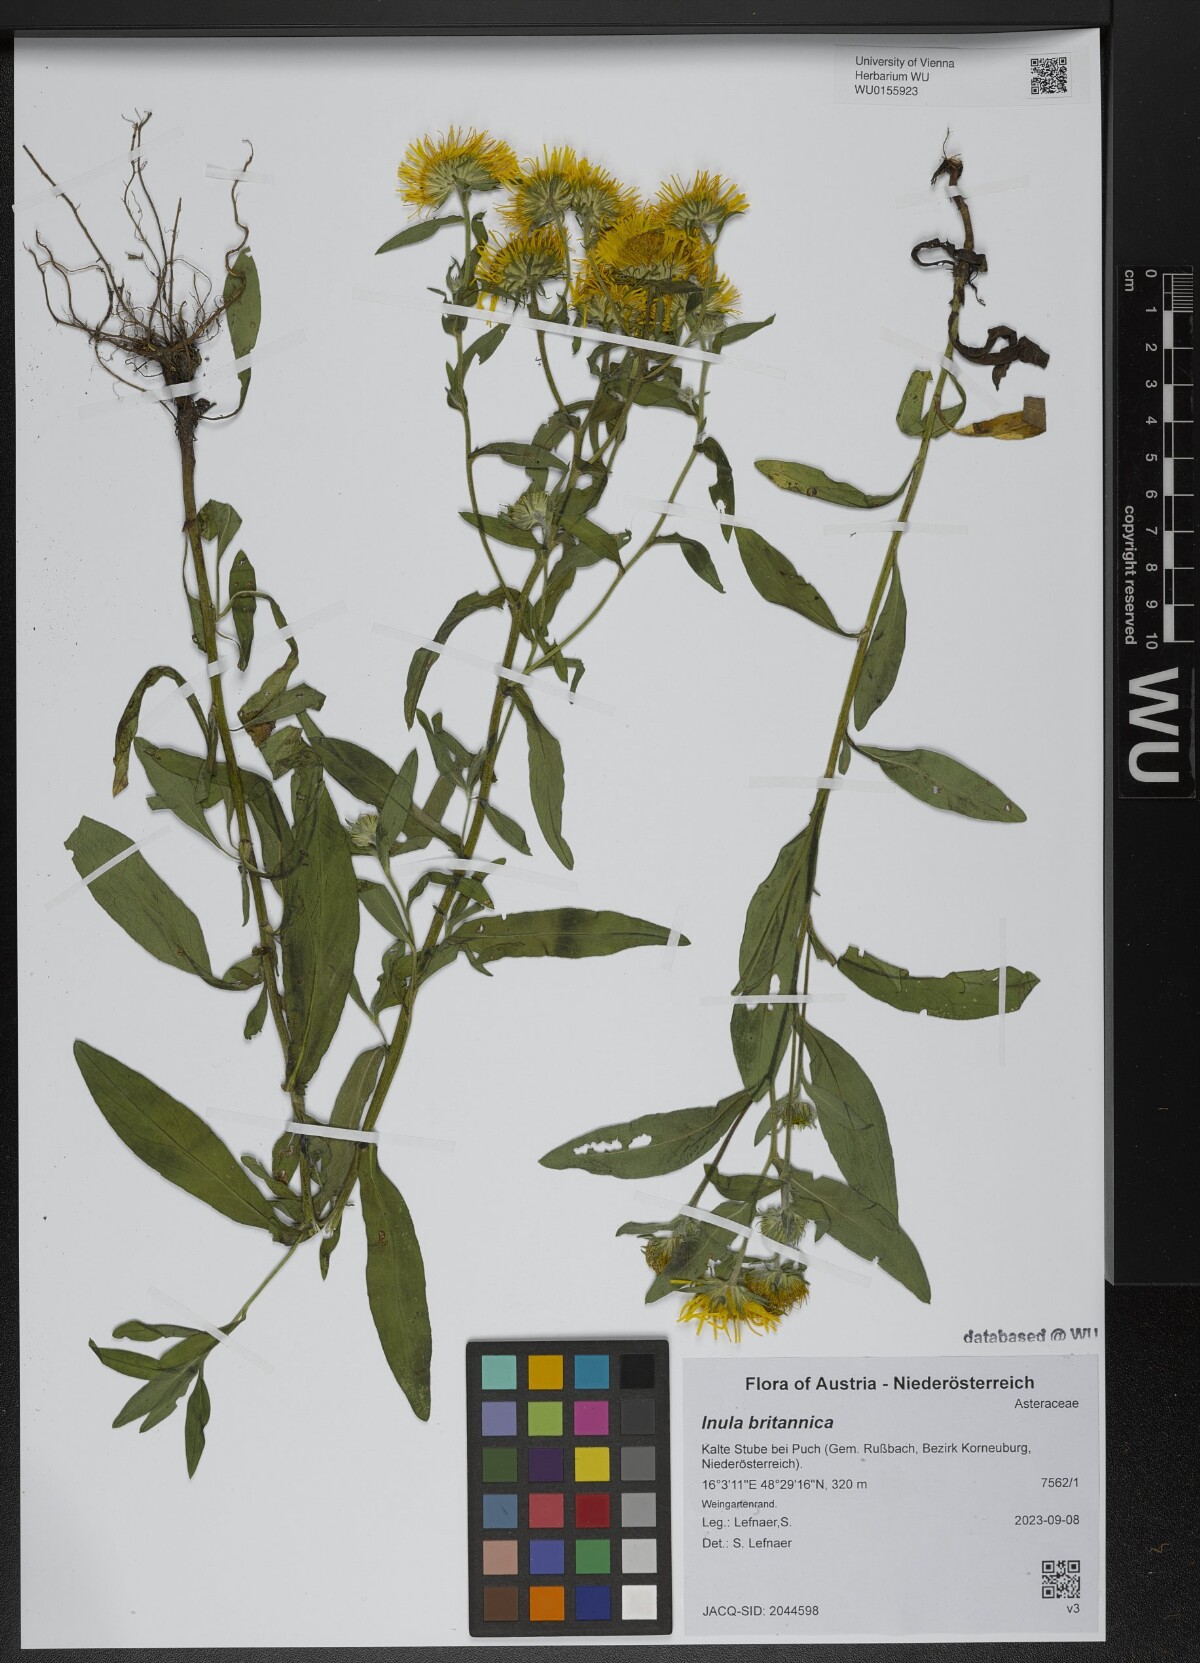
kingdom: Plantae
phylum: Tracheophyta
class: Magnoliopsida
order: Asterales
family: Asteraceae
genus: Pentanema
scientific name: Pentanema britannicum
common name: British elecampane
